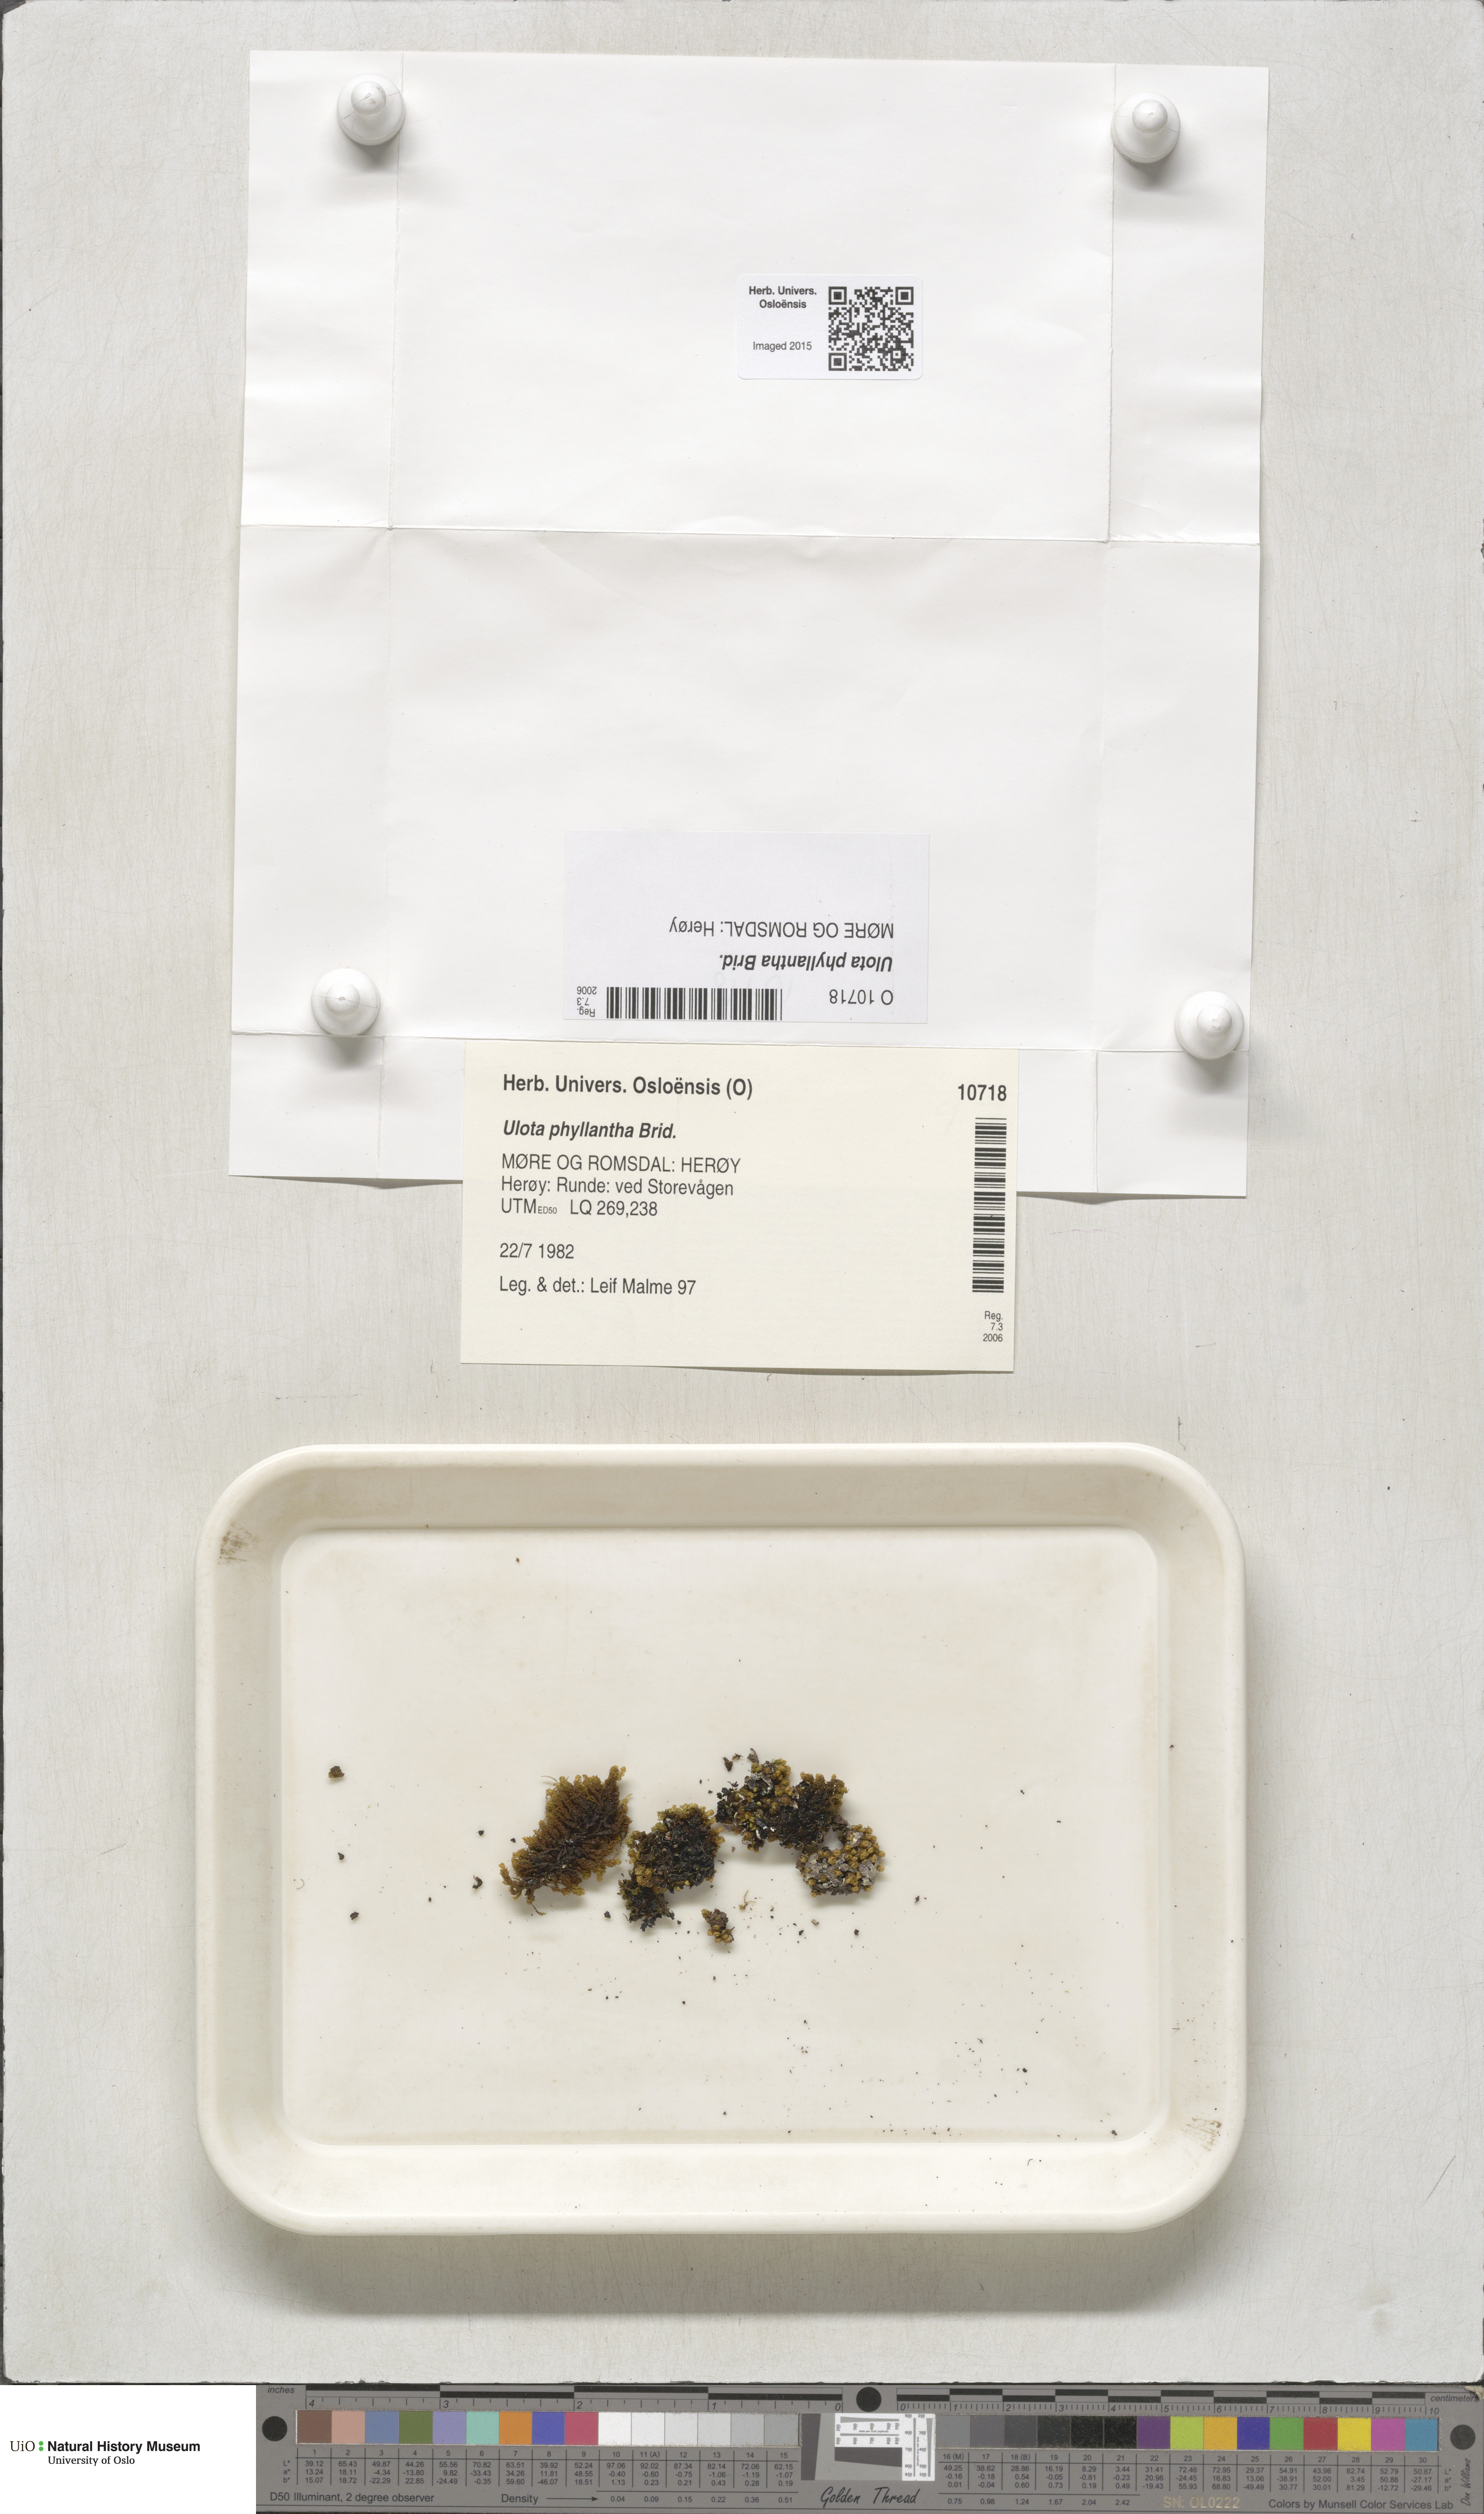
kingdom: Plantae
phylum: Bryophyta
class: Bryopsida
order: Orthotrichales
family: Orthotrichaceae
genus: Plenogemma
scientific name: Plenogemma phyllantha
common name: Frizzled pincushion
